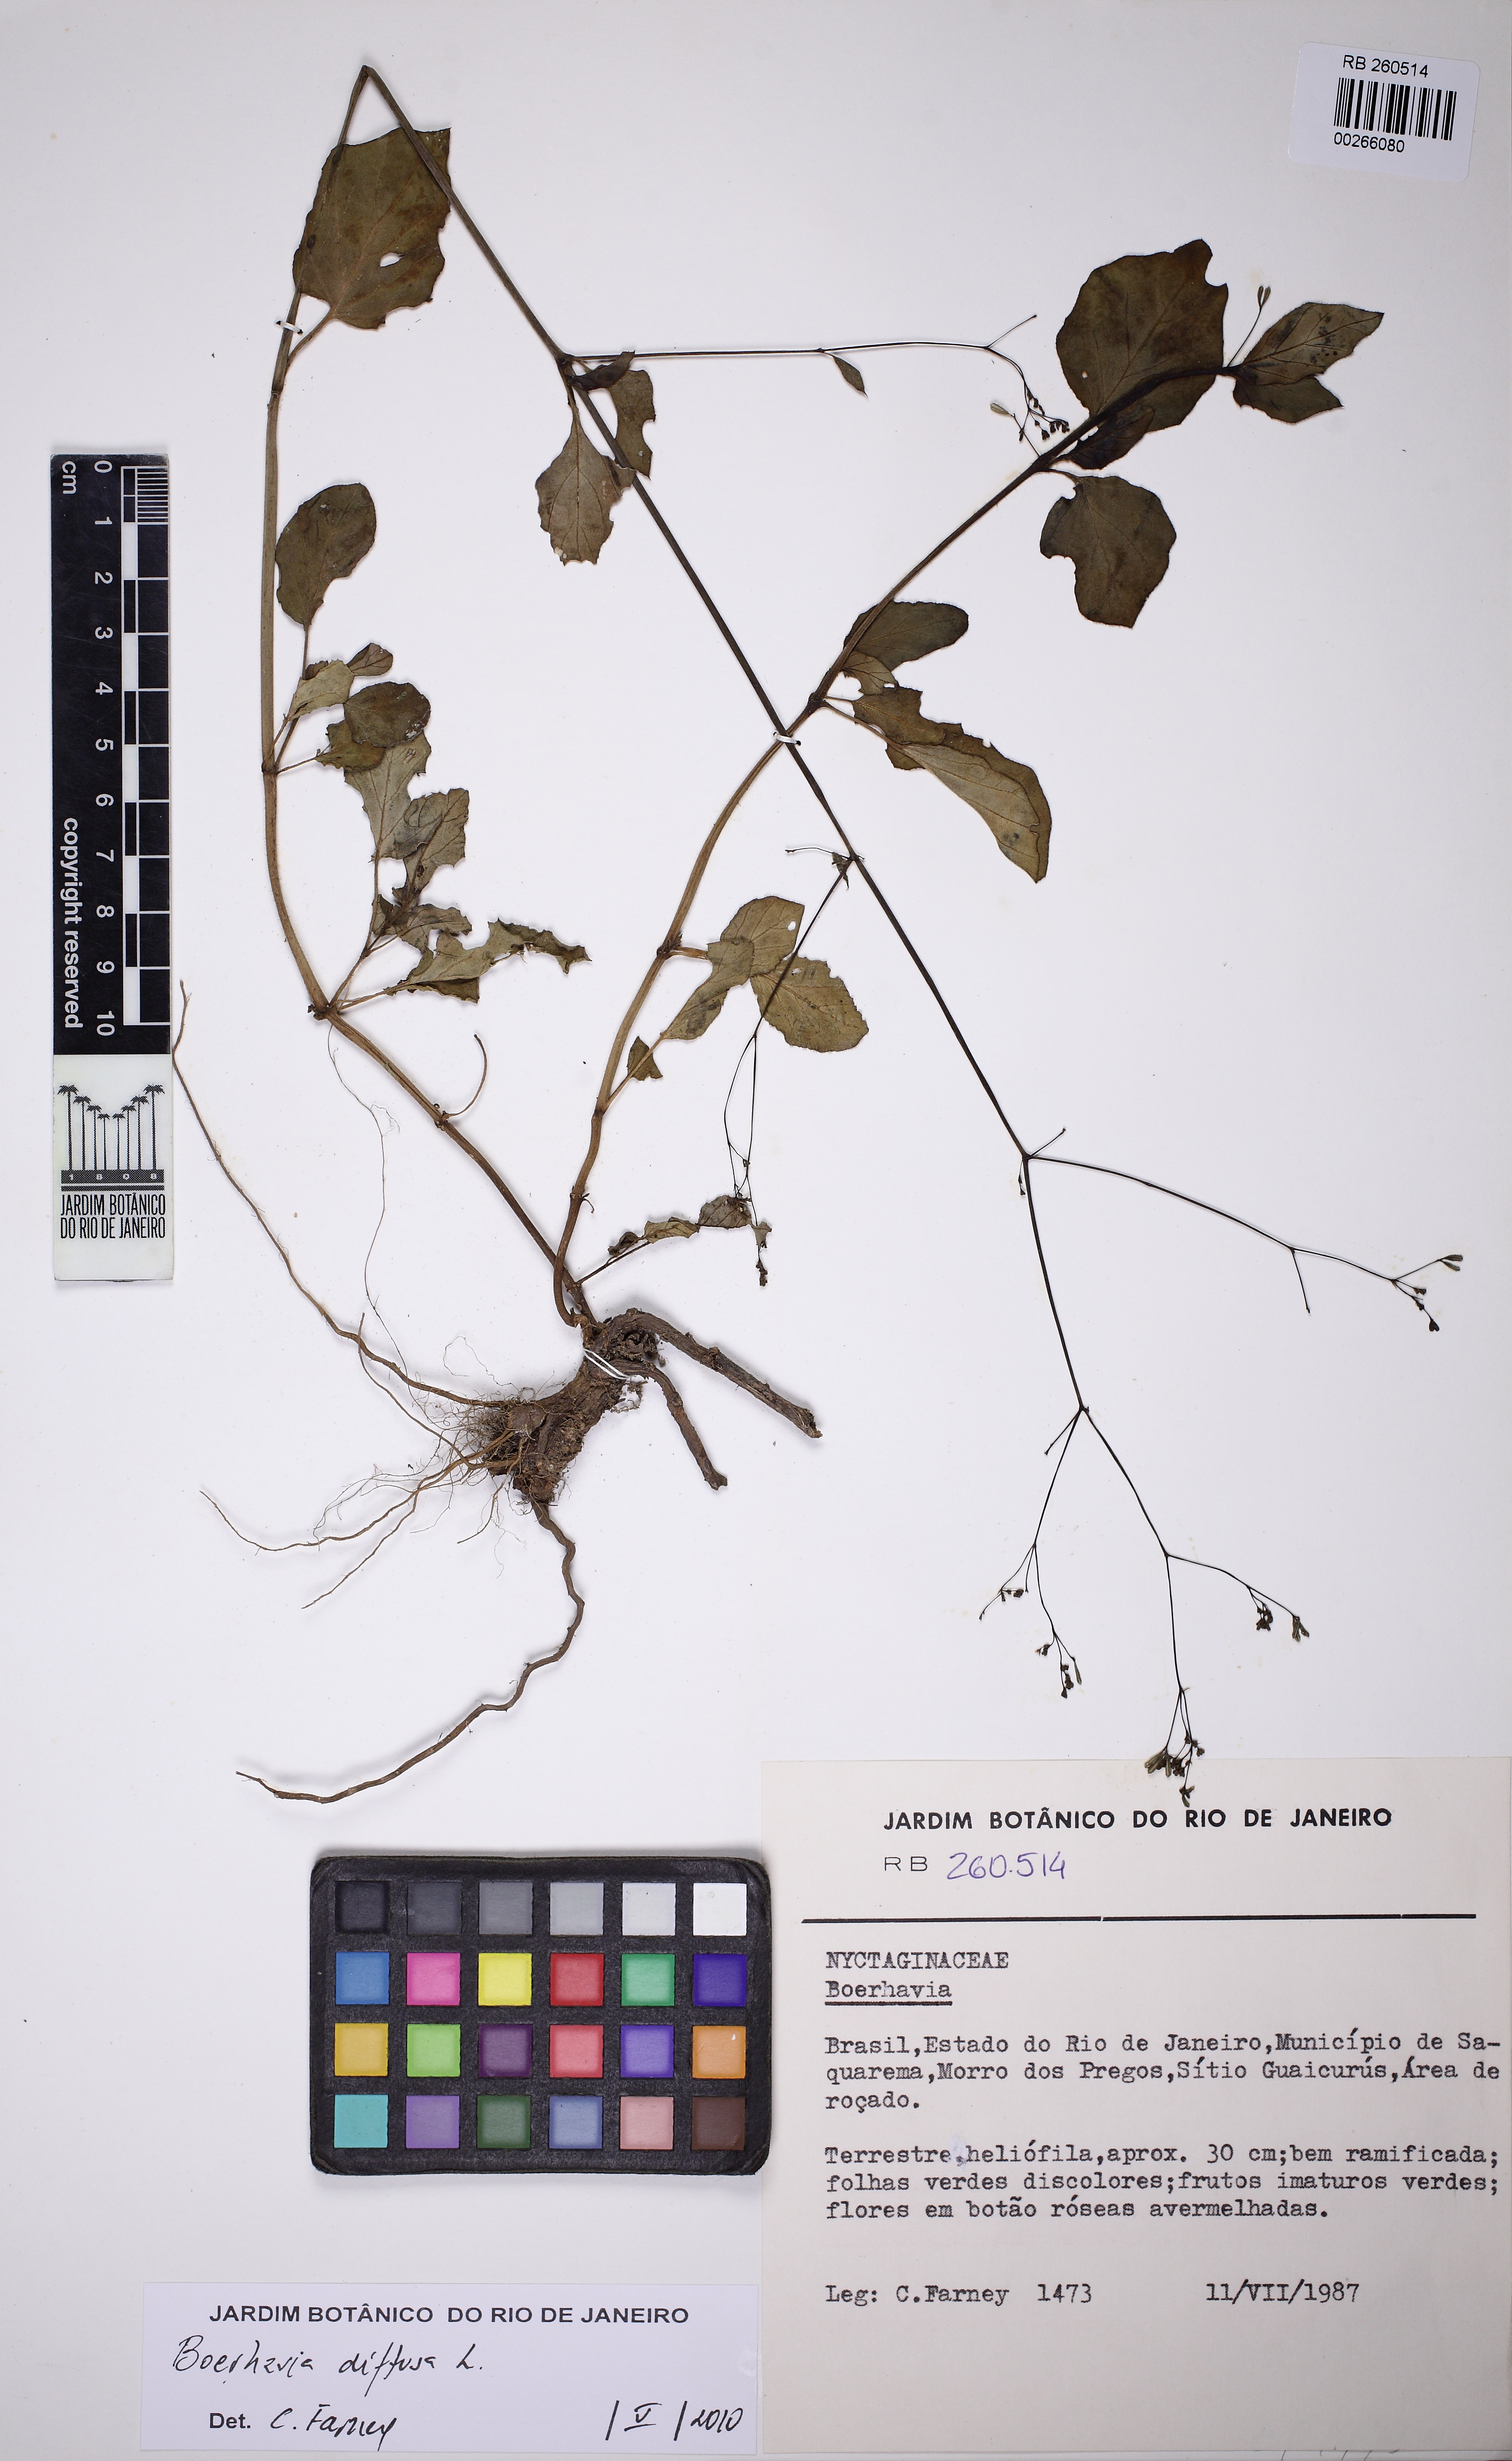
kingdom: Plantae
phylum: Tracheophyta
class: Magnoliopsida
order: Caryophyllales
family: Nyctaginaceae
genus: Boerhavia
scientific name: Boerhavia diffusa
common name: Red spiderling
